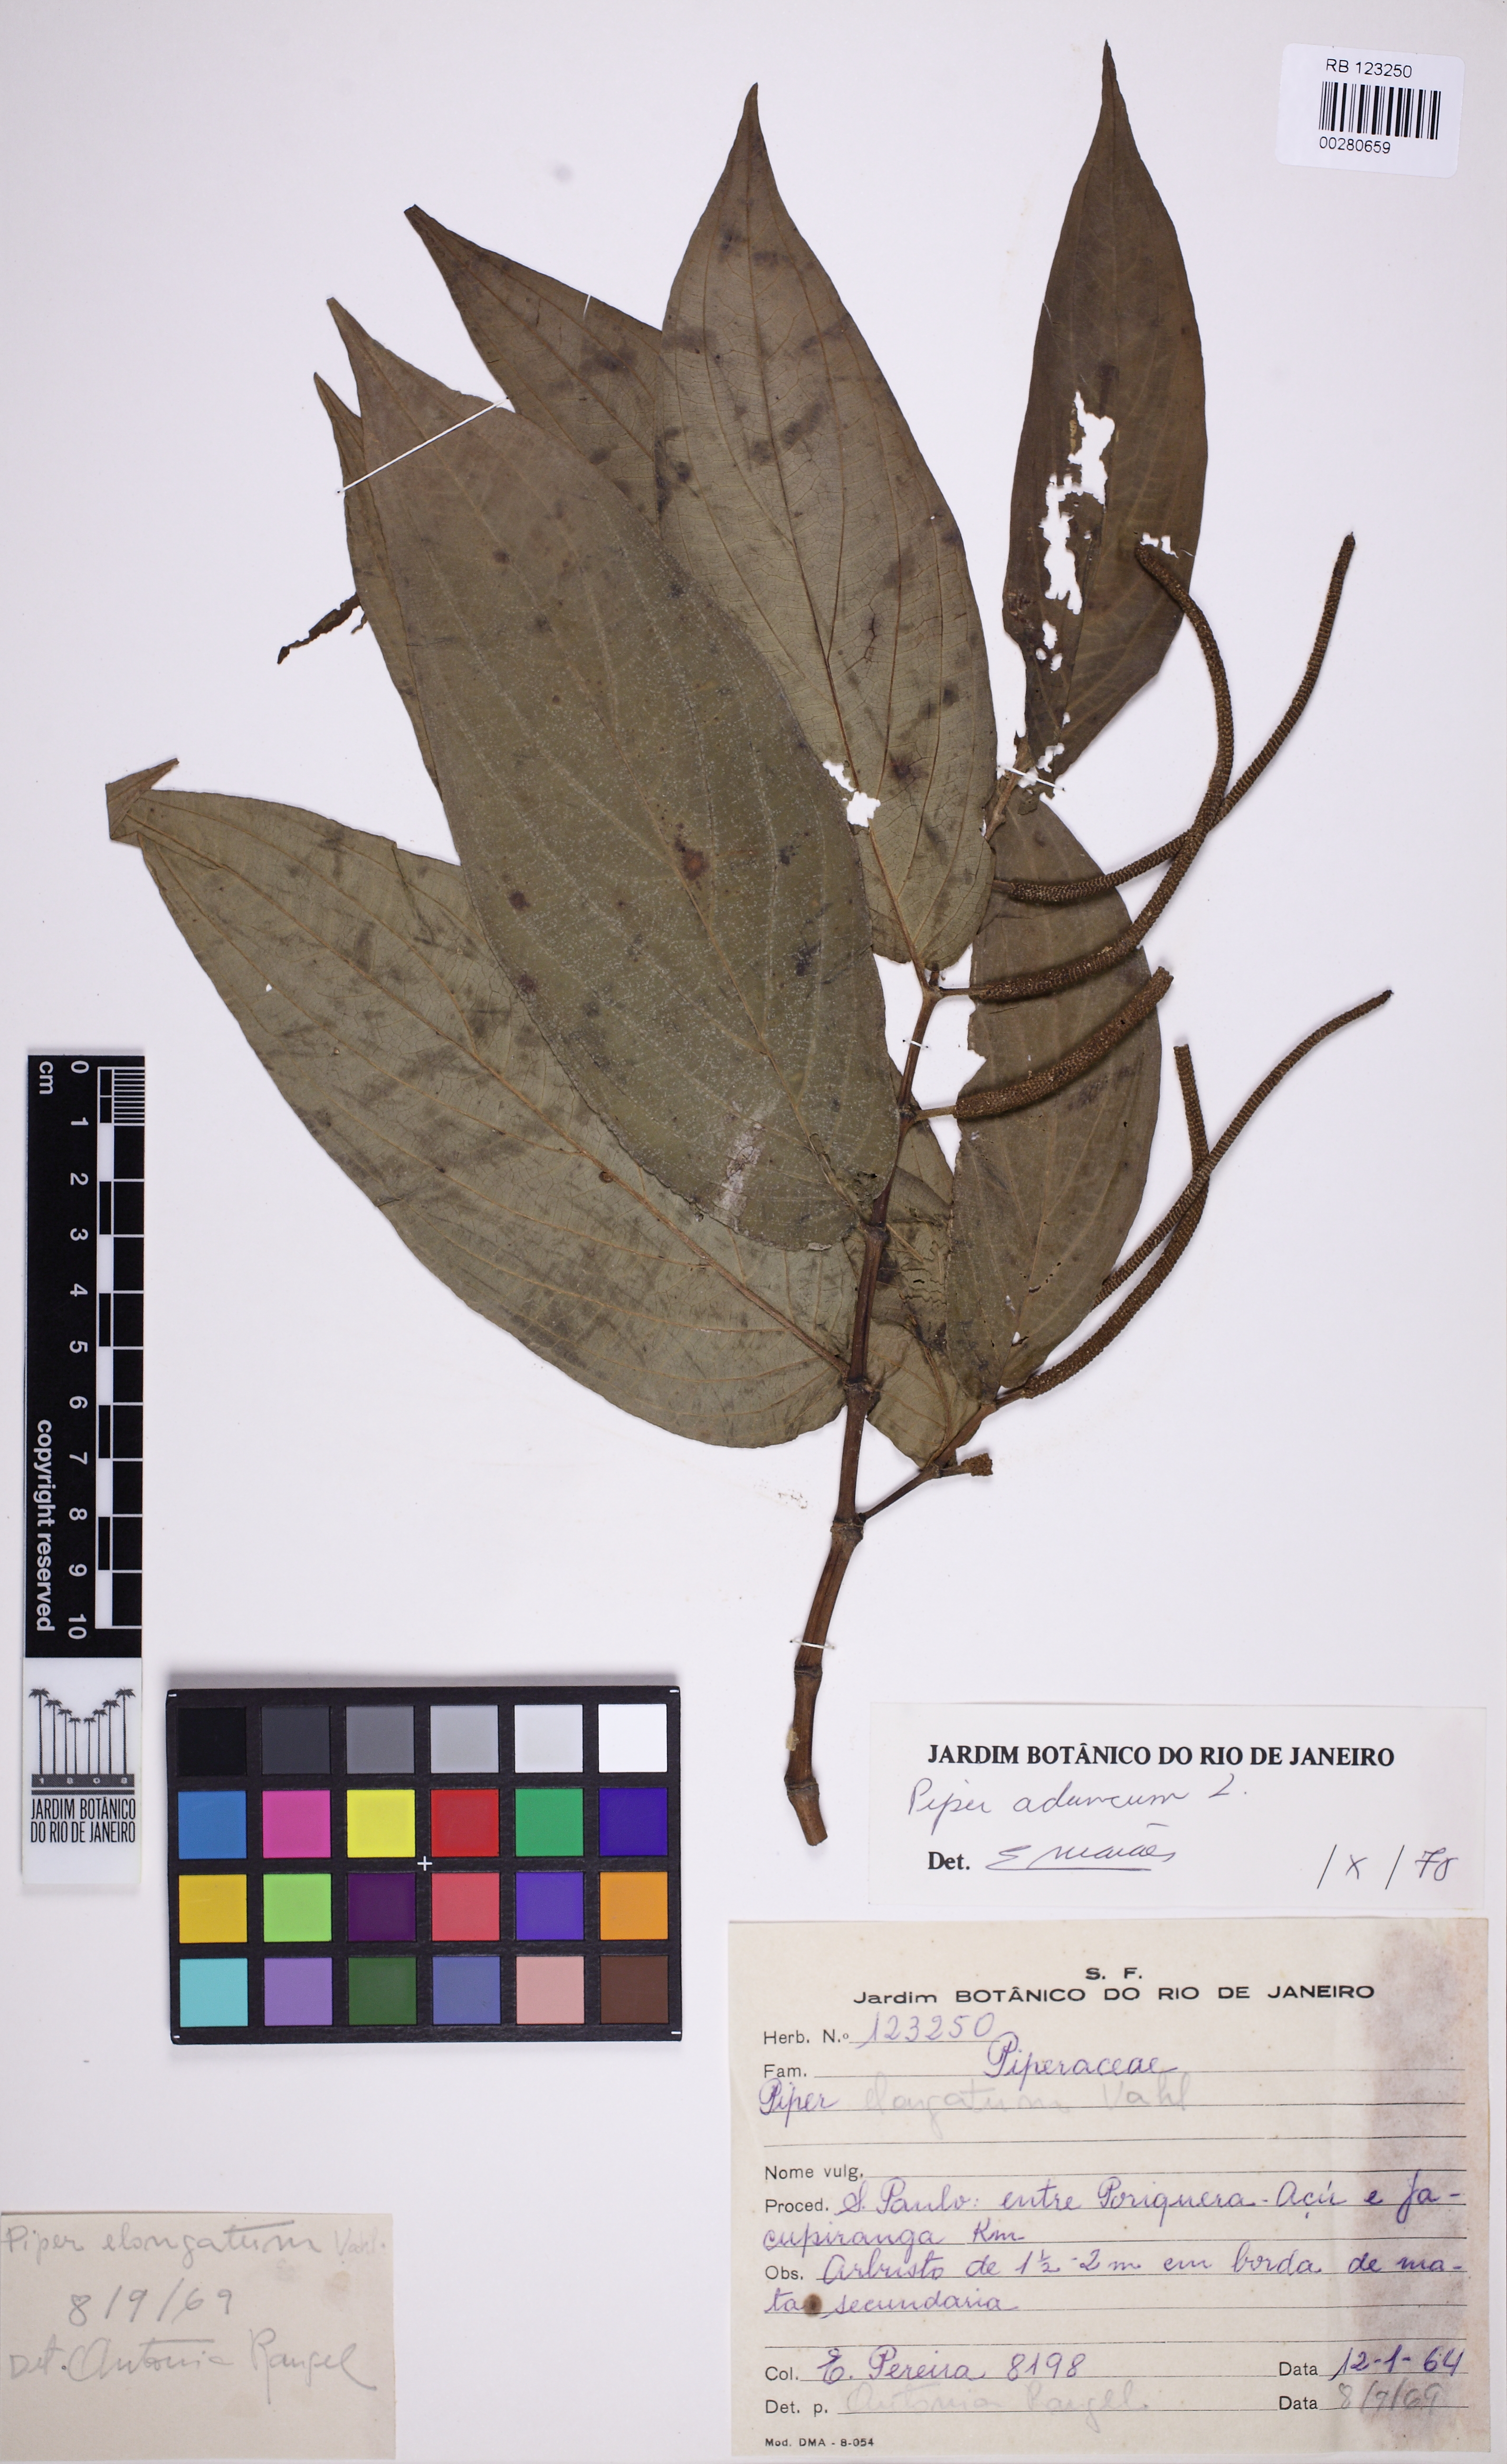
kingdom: Plantae
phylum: Tracheophyta
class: Magnoliopsida
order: Piperales
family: Piperaceae
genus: Piper
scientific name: Piper aduncum
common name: Spiked pepper
